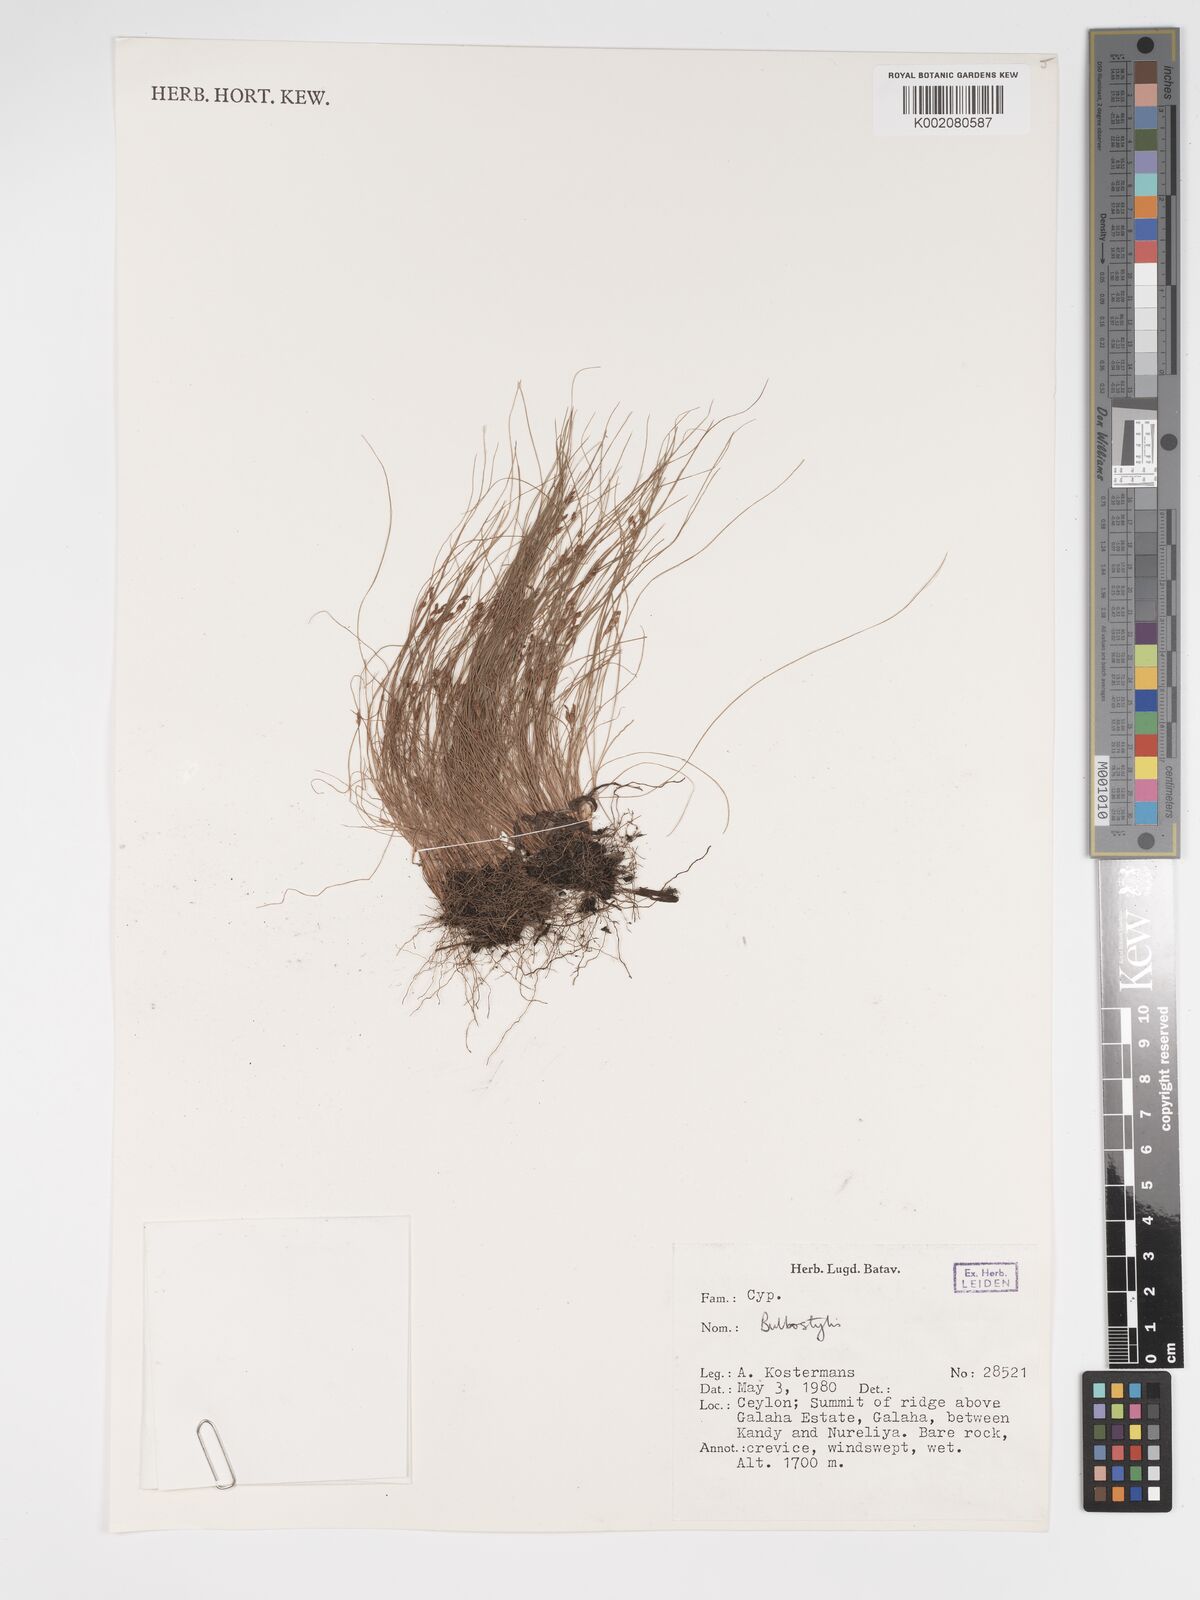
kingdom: Plantae
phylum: Tracheophyta
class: Liliopsida
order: Poales
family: Cyperaceae
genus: Bulbostylis
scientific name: Bulbostylis
